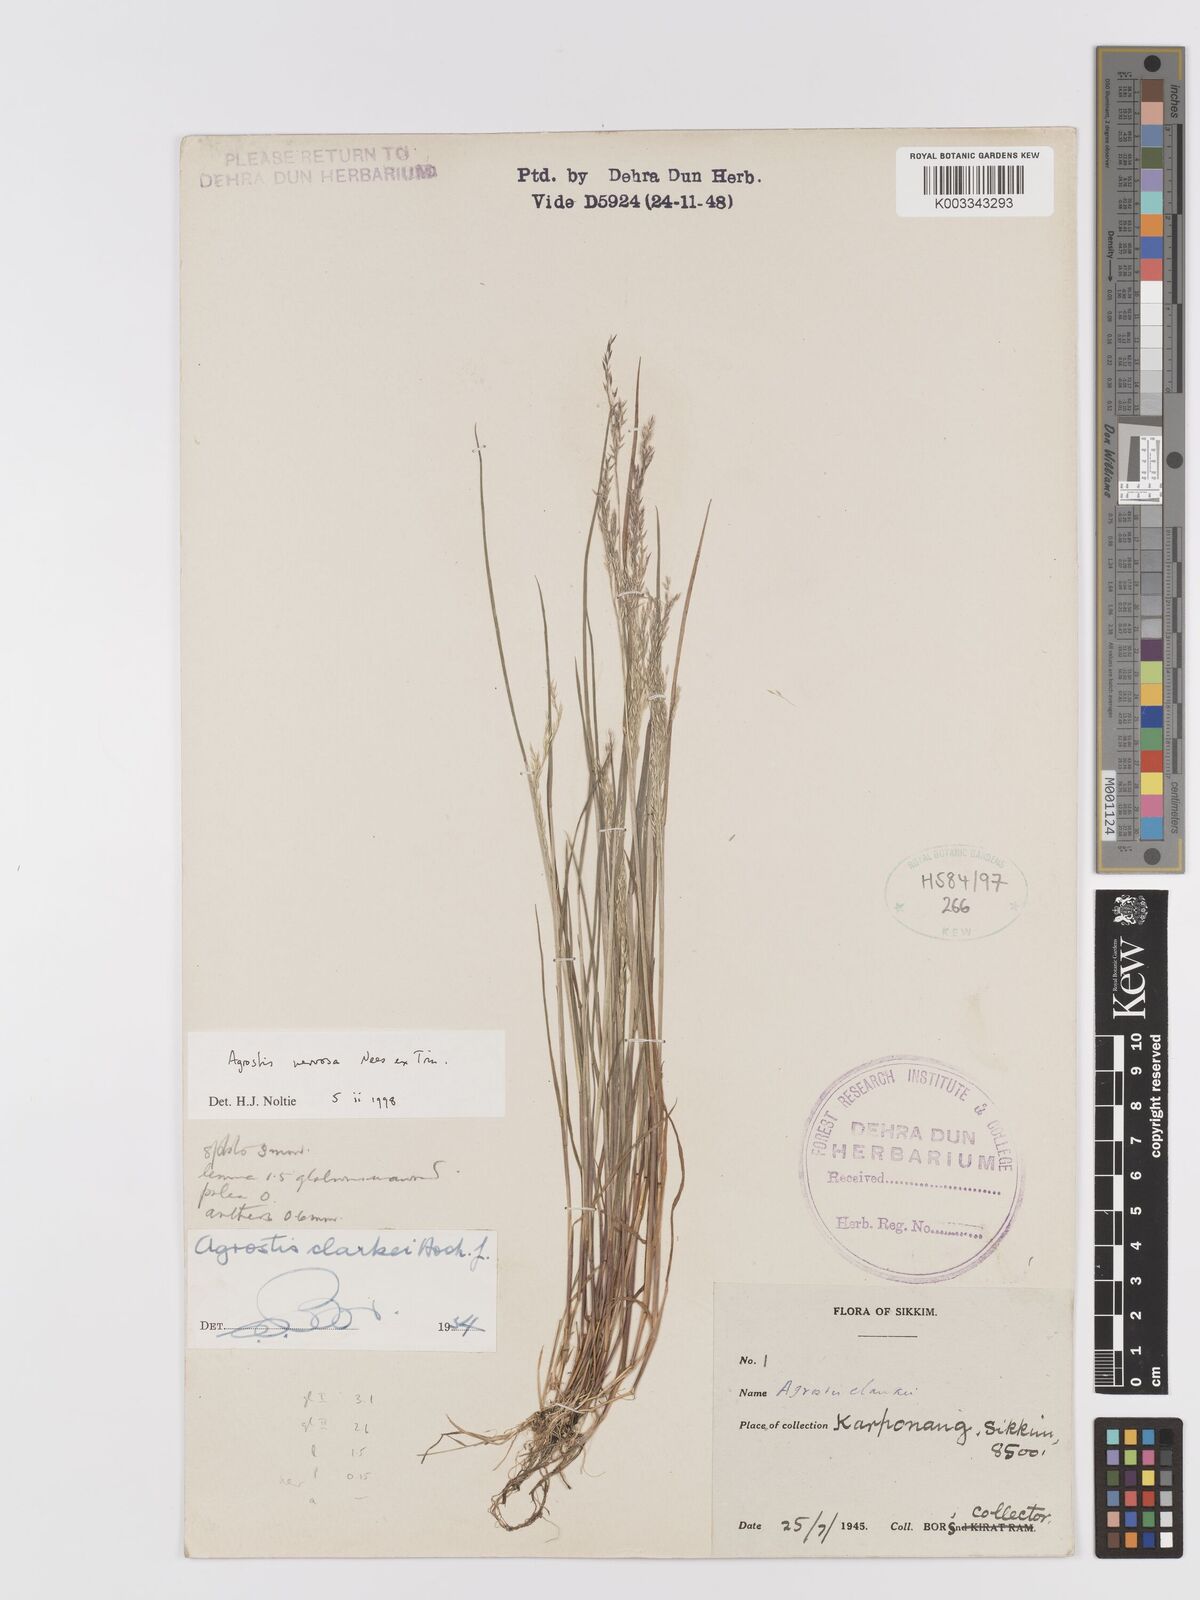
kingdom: Plantae
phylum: Tracheophyta
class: Liliopsida
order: Poales
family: Poaceae
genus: Agrostis
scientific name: Agrostis nervosa
